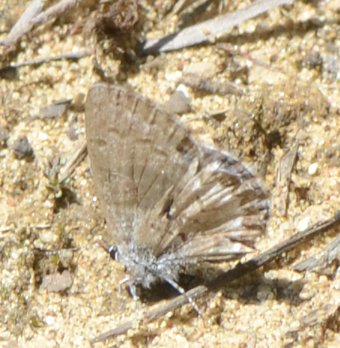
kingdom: Animalia
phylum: Arthropoda
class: Insecta
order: Lepidoptera
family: Lycaenidae
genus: Celastrina
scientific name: Celastrina lucia
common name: Northern Spring Azure
